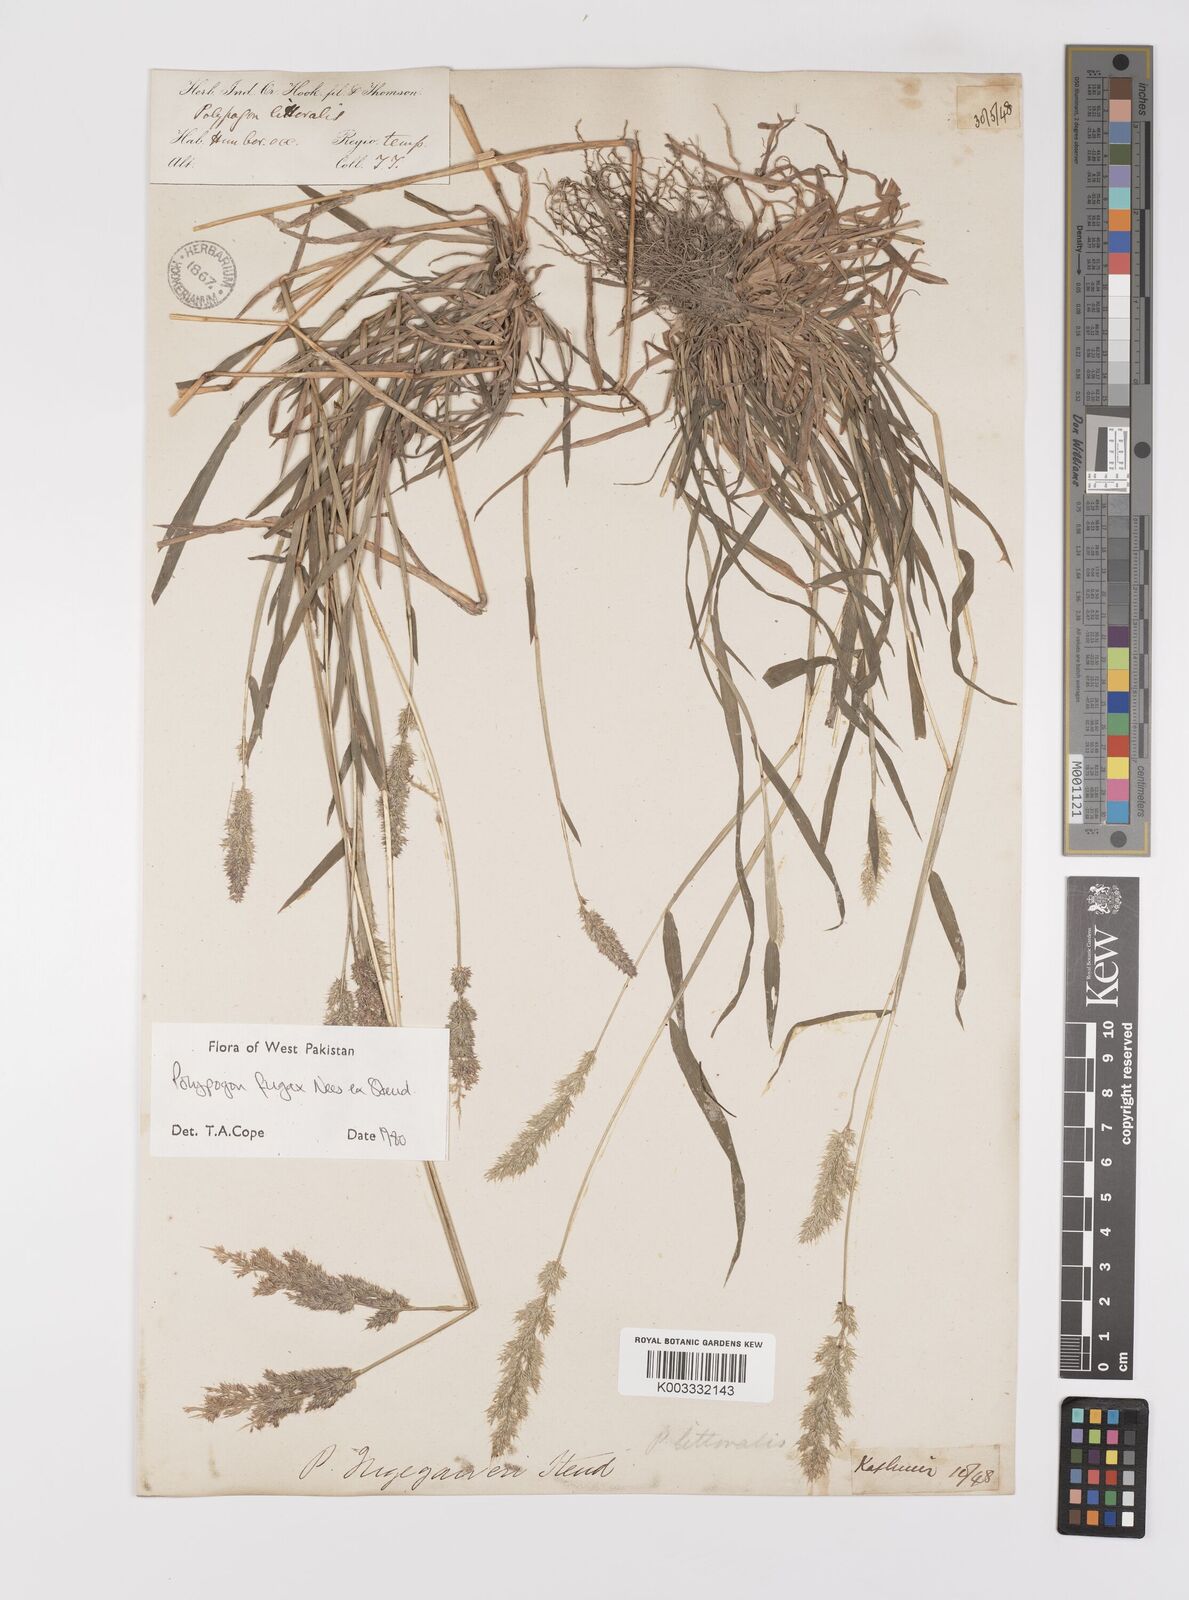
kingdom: Plantae
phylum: Tracheophyta
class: Liliopsida
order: Poales
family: Poaceae
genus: Polypogon
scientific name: Polypogon fugax
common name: Asia minor bluegrass
